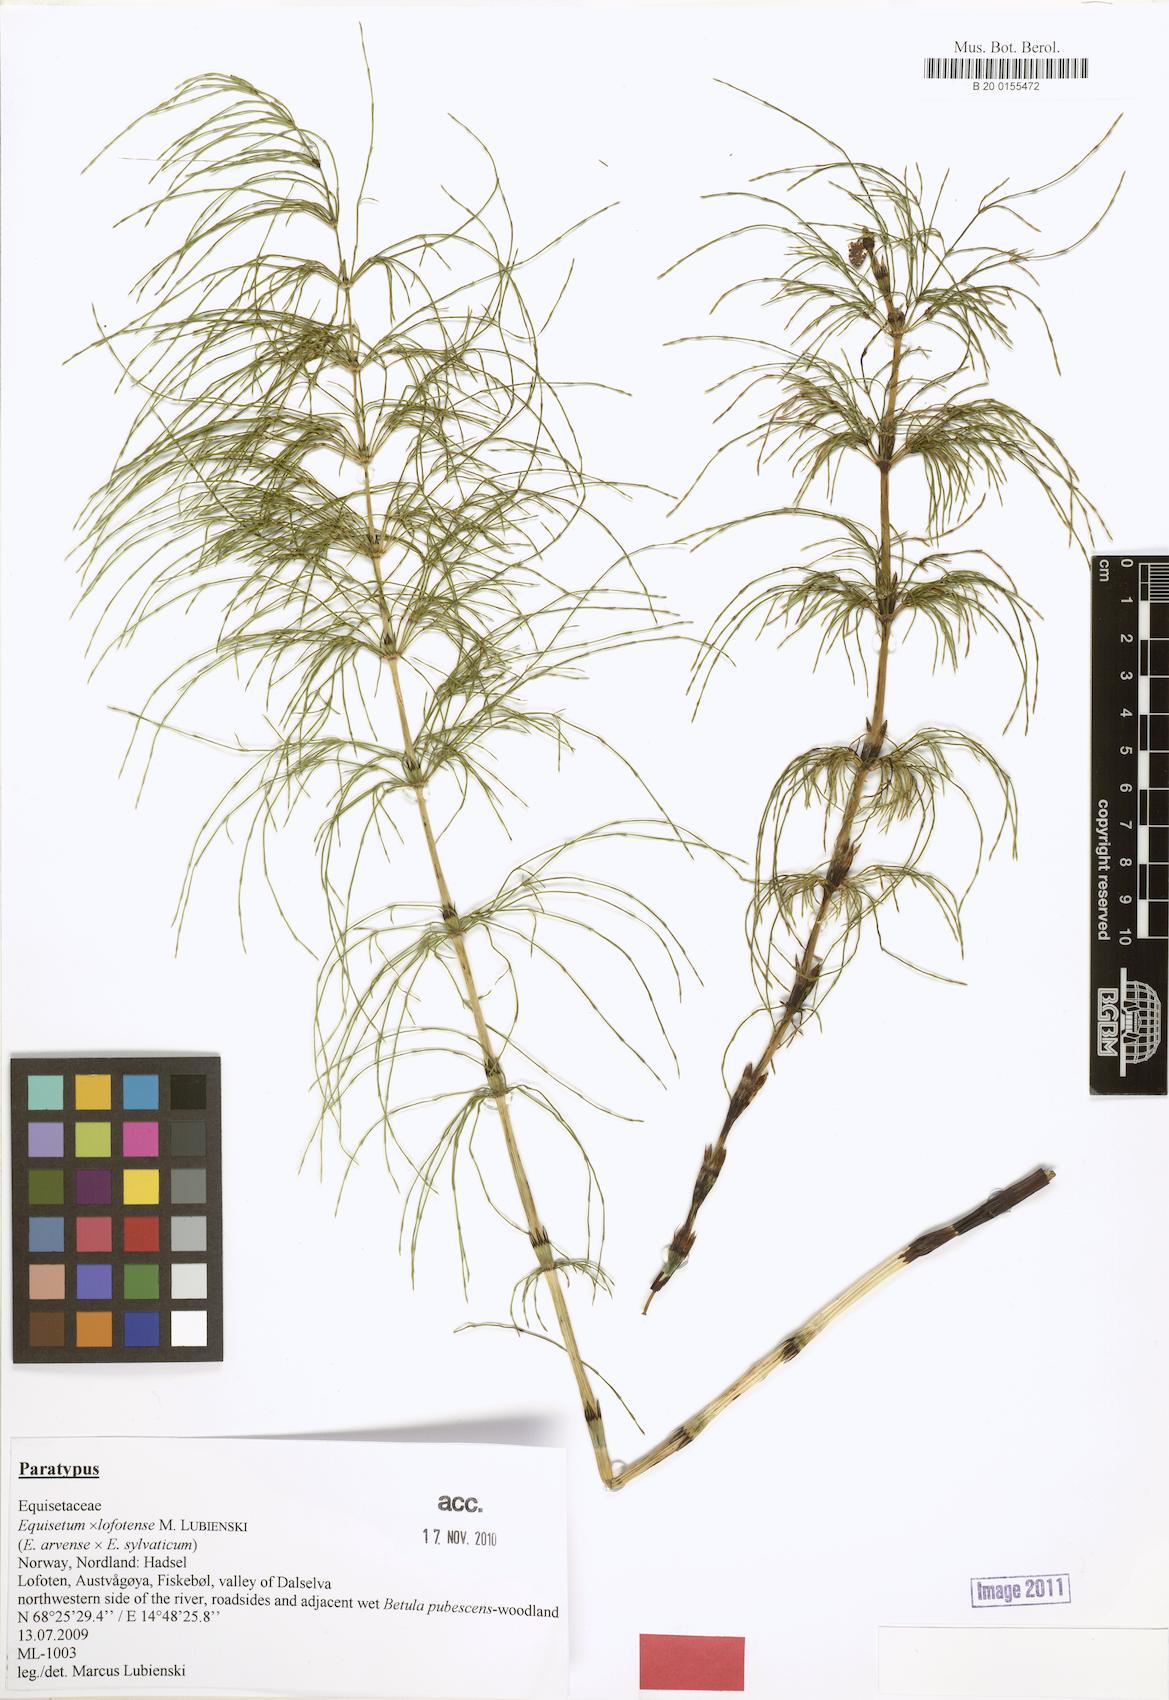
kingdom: Plantae
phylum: Tracheophyta
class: Polypodiopsida
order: Equisetales
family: Equisetaceae
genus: Equisetum
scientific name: Equisetum lofotense
